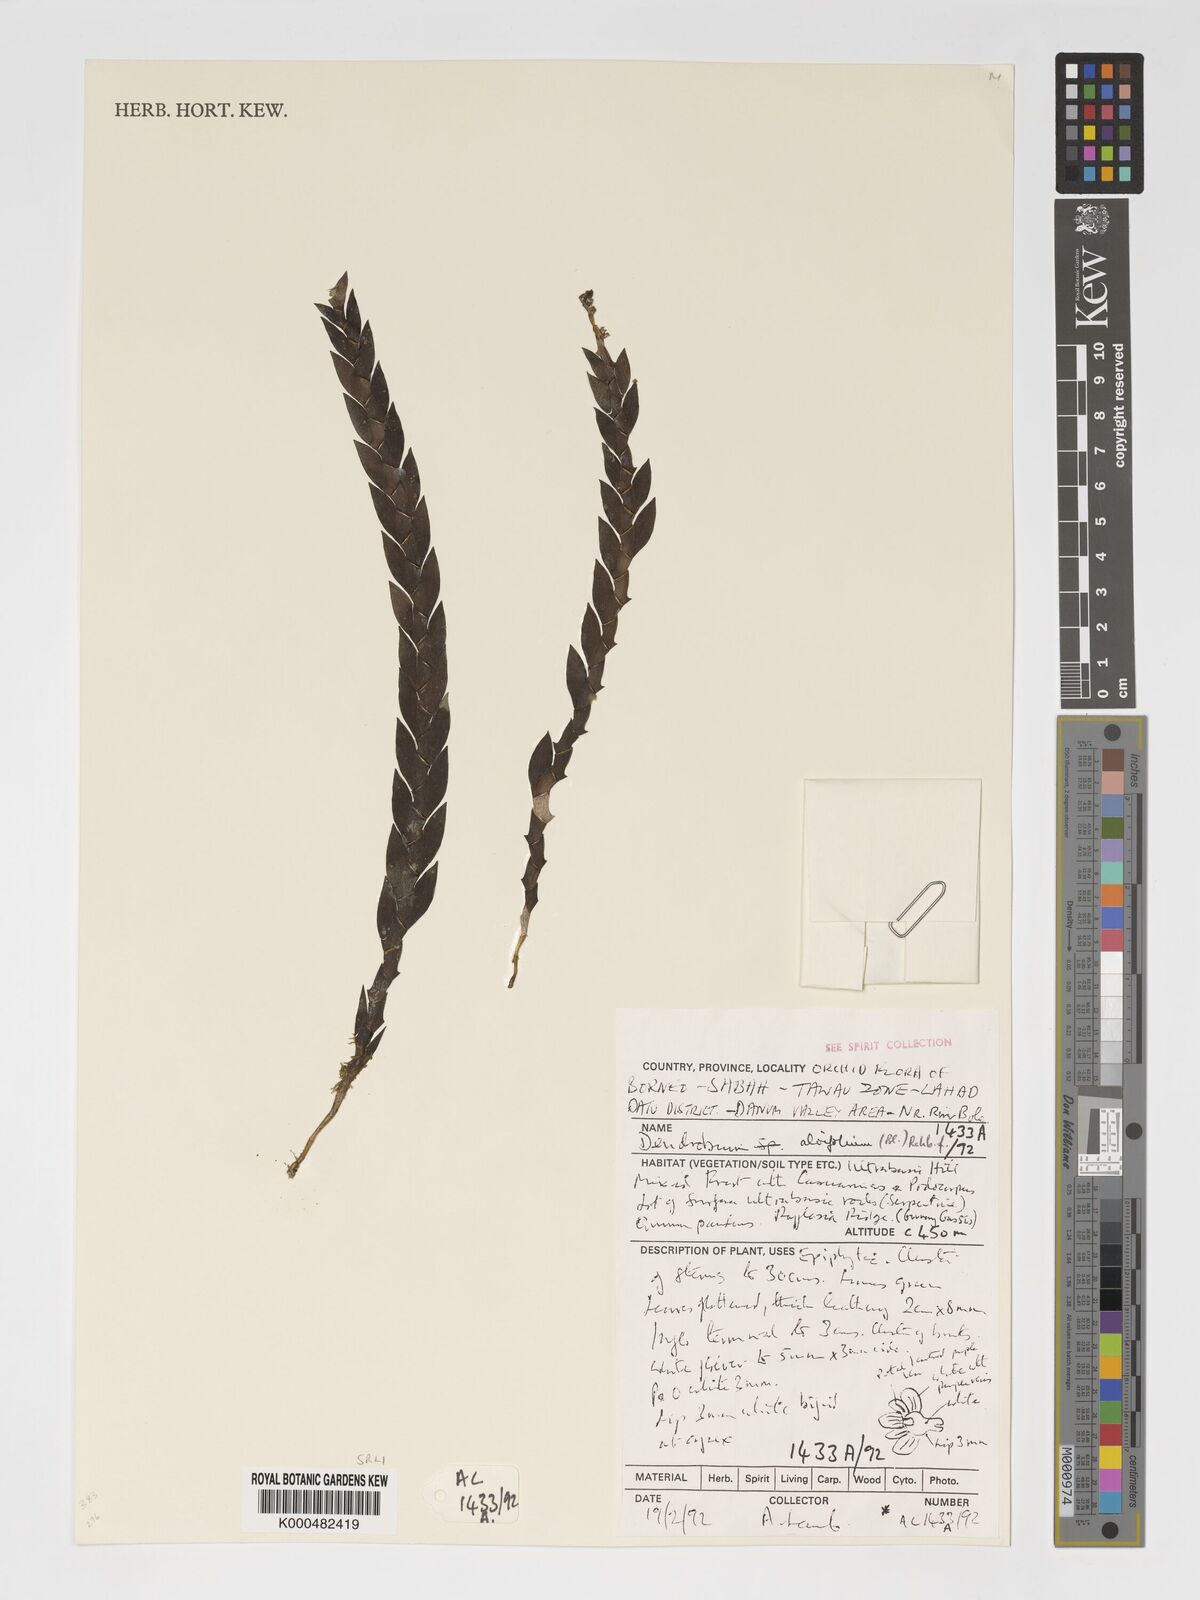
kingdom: Plantae
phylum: Tracheophyta
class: Liliopsida
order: Asparagales
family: Orchidaceae
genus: Dendrobium
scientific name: Dendrobium aloifolium
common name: Aloe-like dendrobium
